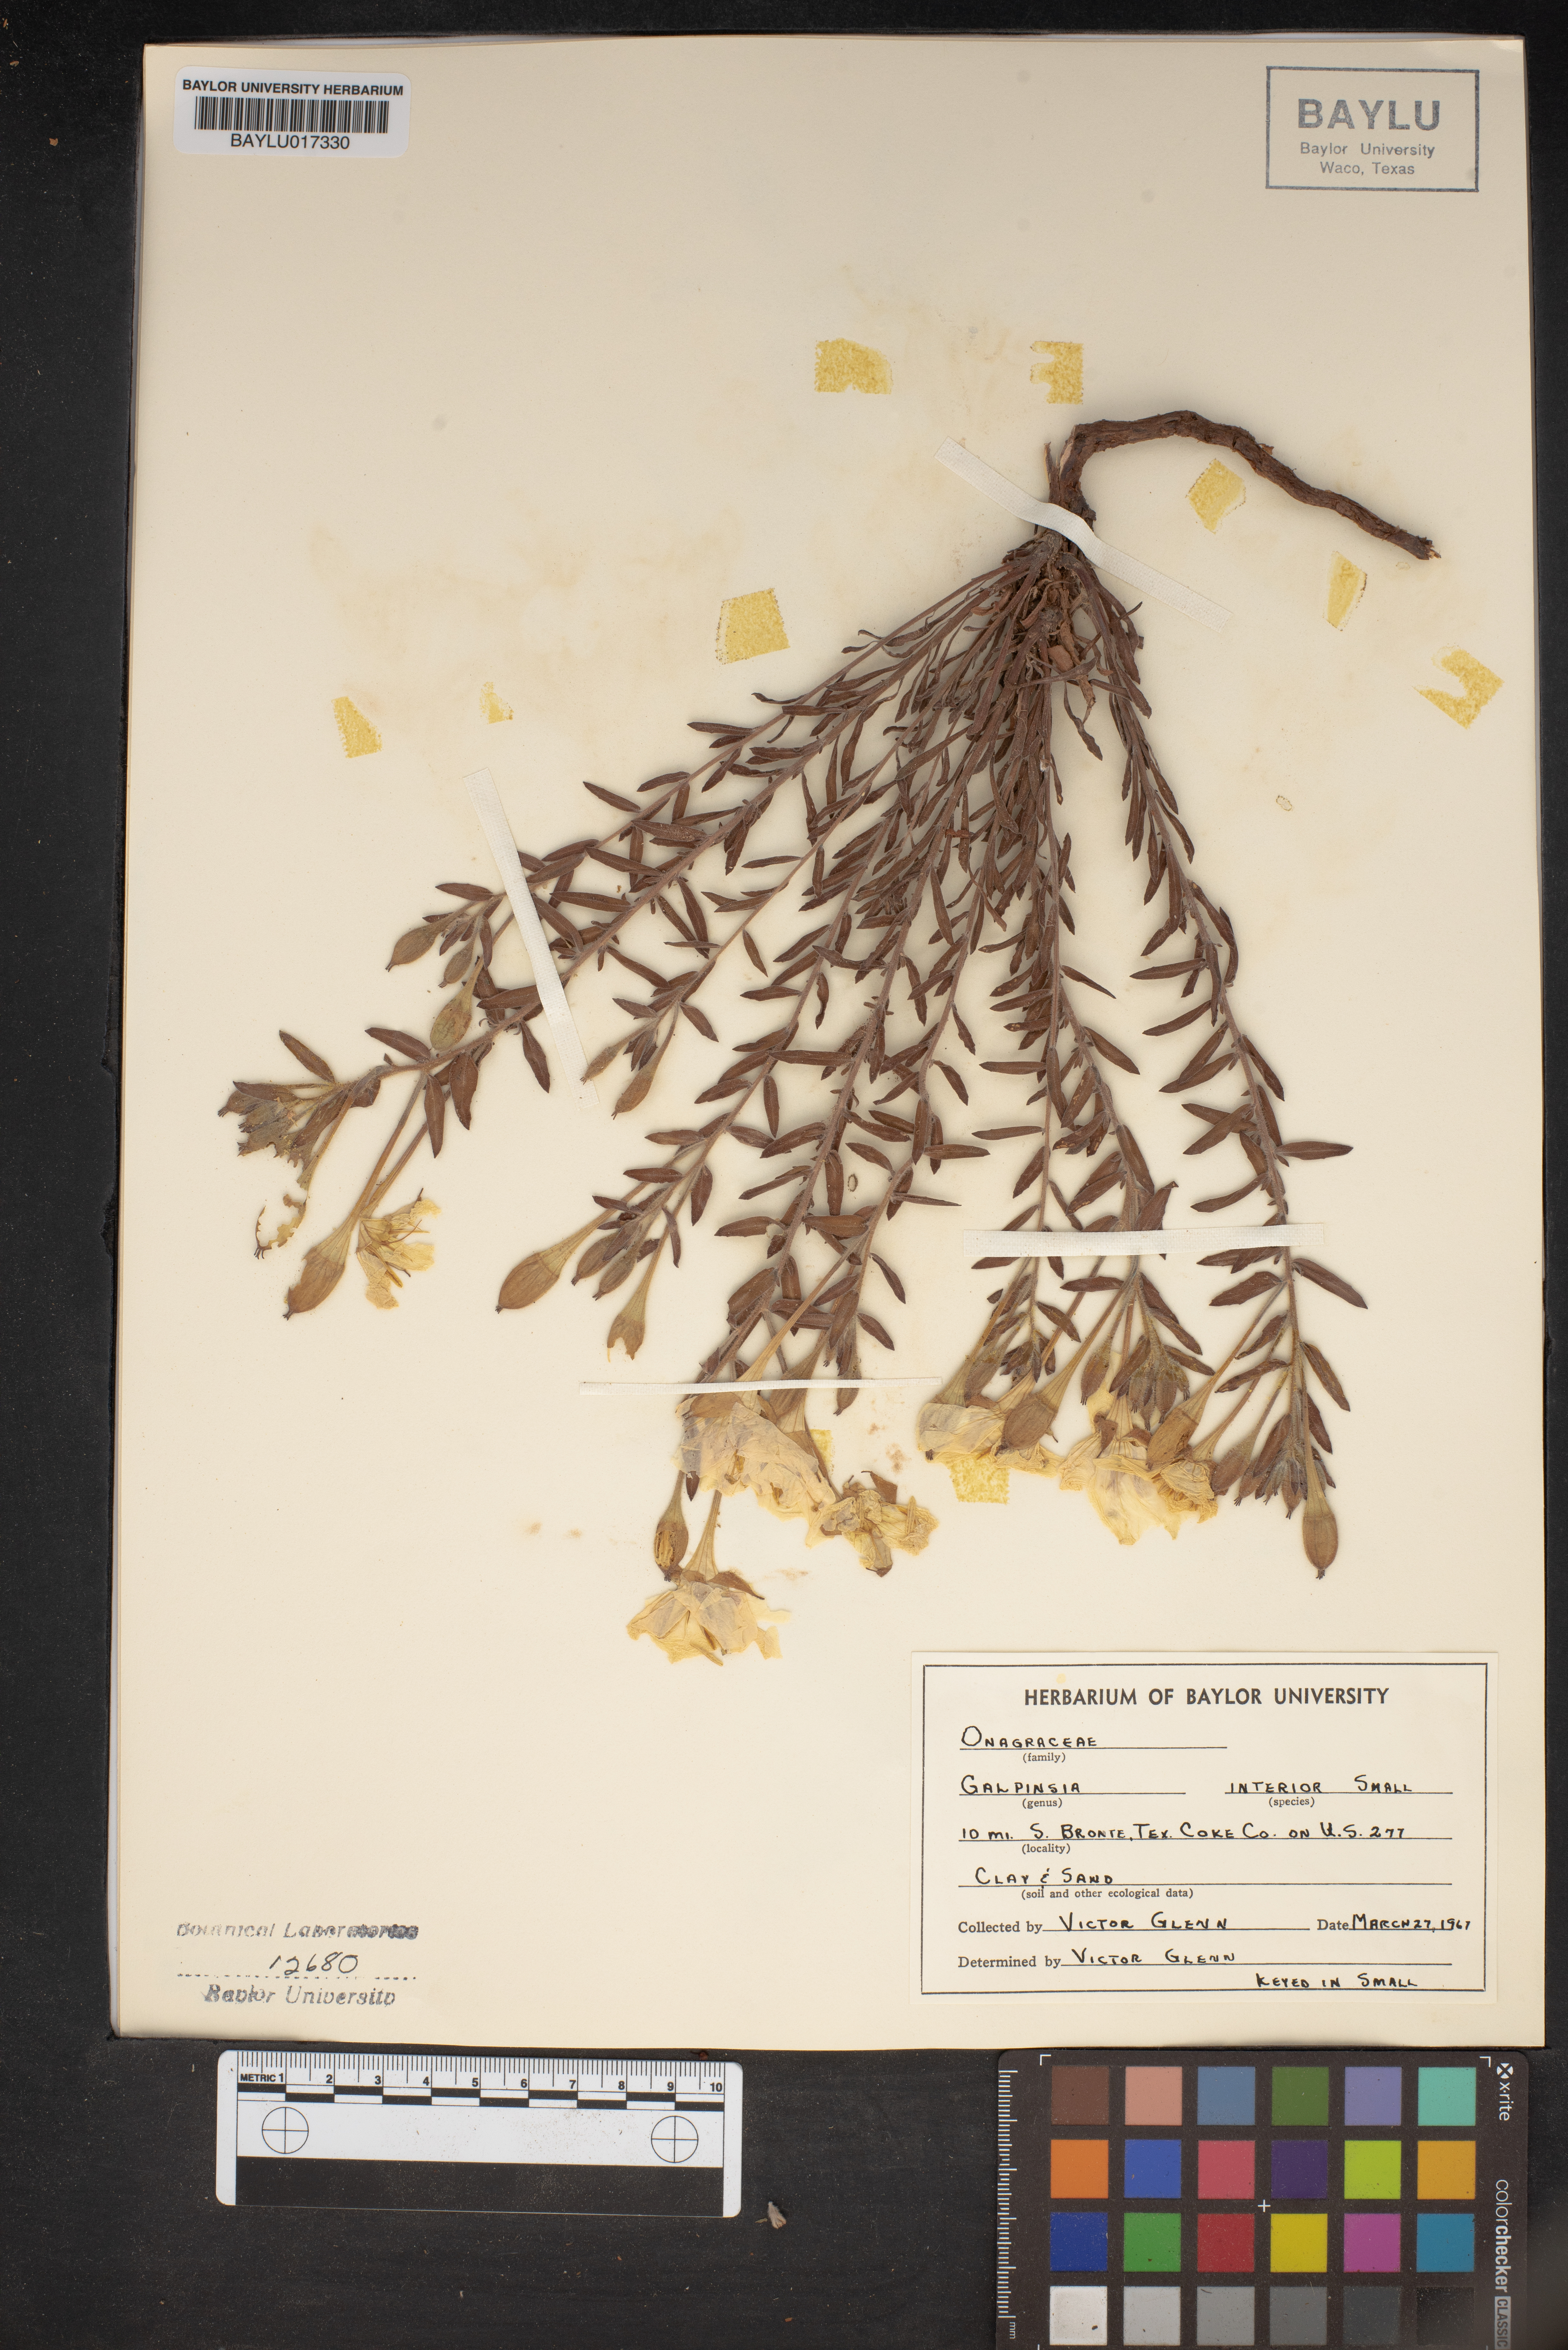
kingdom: Plantae
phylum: Tracheophyta
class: Magnoliopsida
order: Myrtales
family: Onagraceae
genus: Oenothera
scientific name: Oenothera hartwegii
